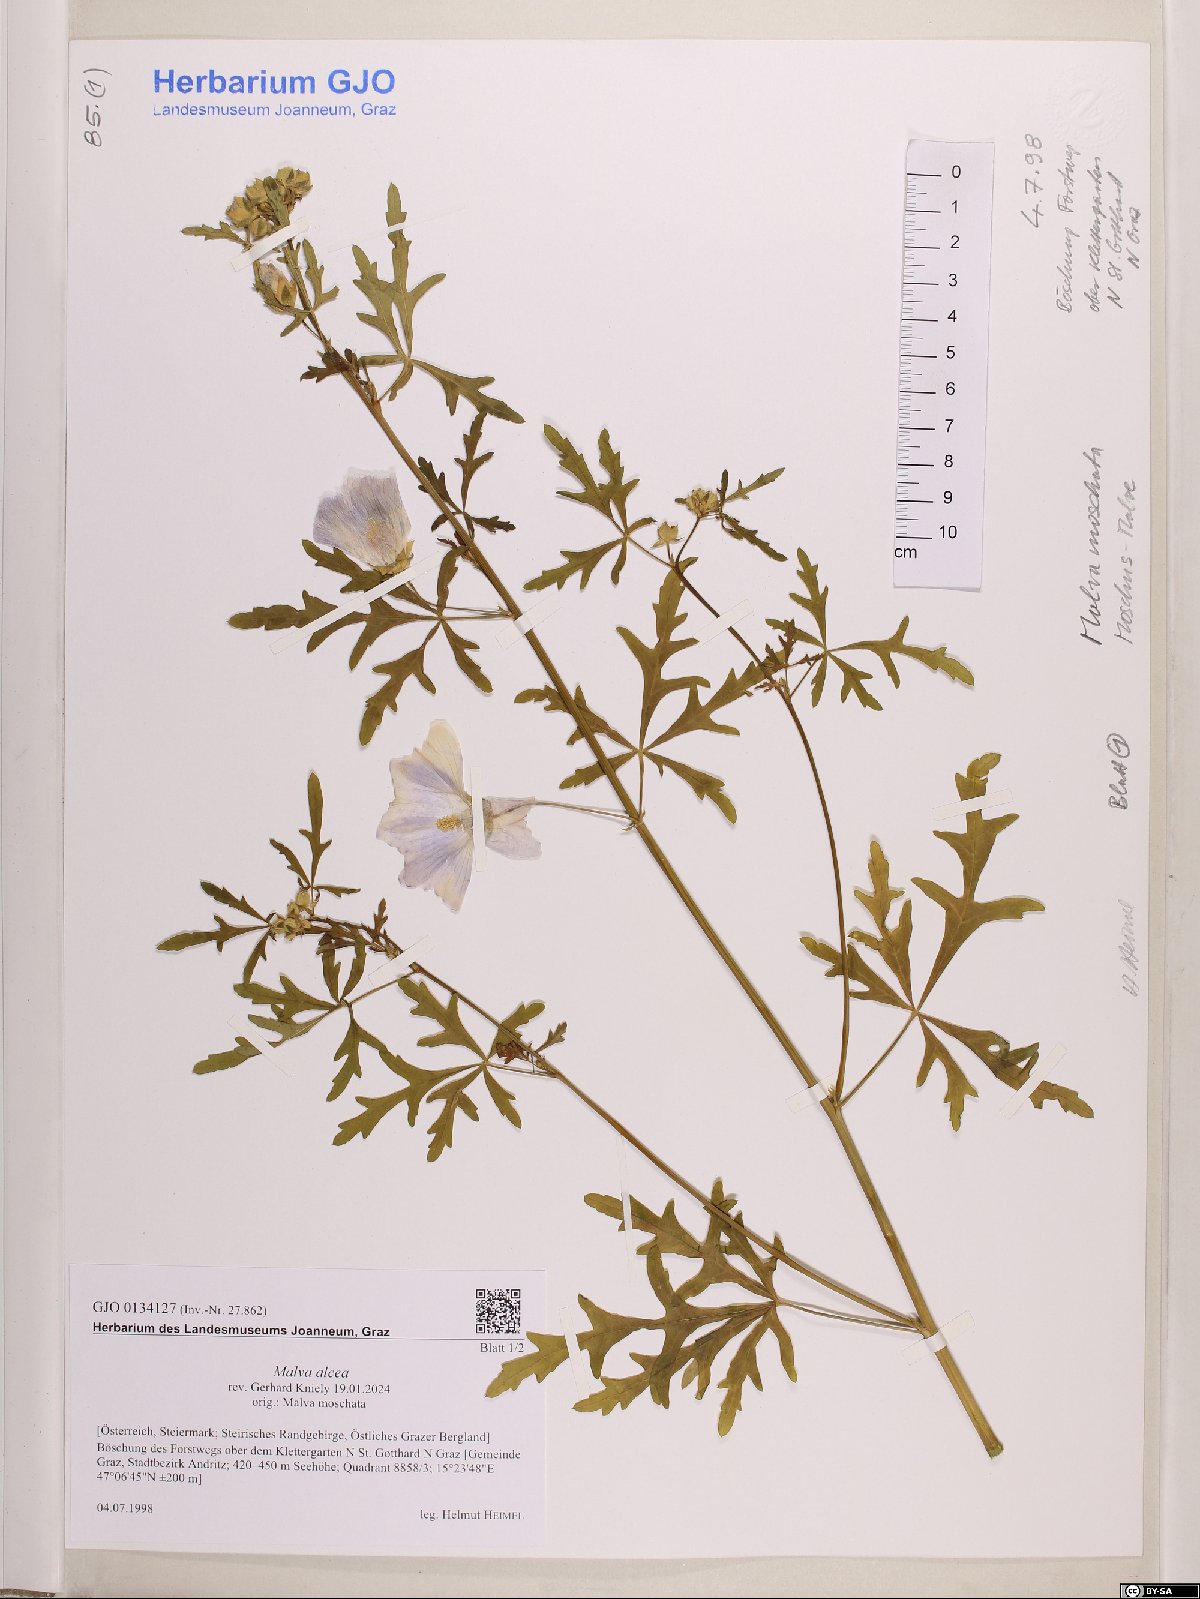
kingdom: Plantae
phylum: Tracheophyta
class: Magnoliopsida
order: Malvales
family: Malvaceae
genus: Malva
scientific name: Malva alcea
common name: Greater musk-mallow
